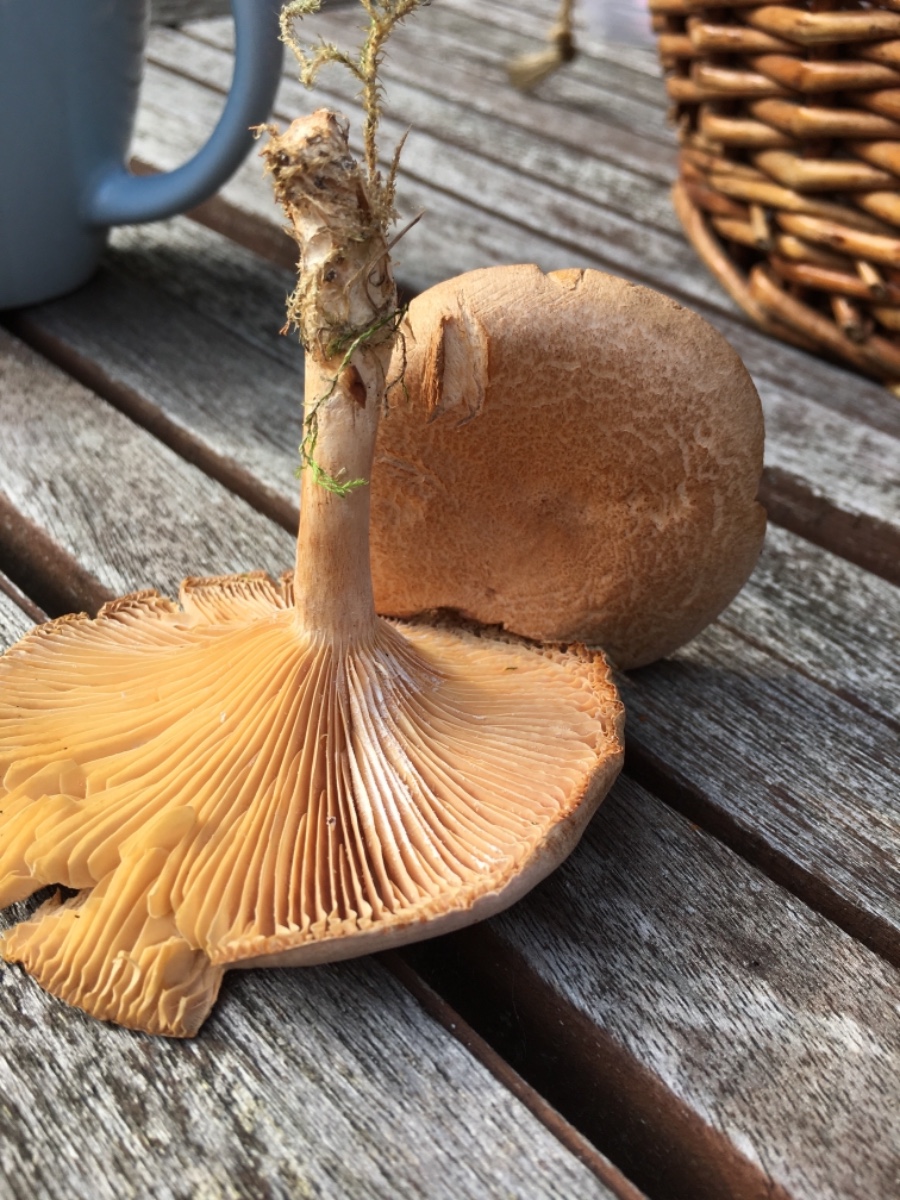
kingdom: Fungi
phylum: Basidiomycota
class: Agaricomycetes
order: Russulales
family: Russulaceae
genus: Lactarius
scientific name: Lactarius helvus
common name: mose-mælkehat
